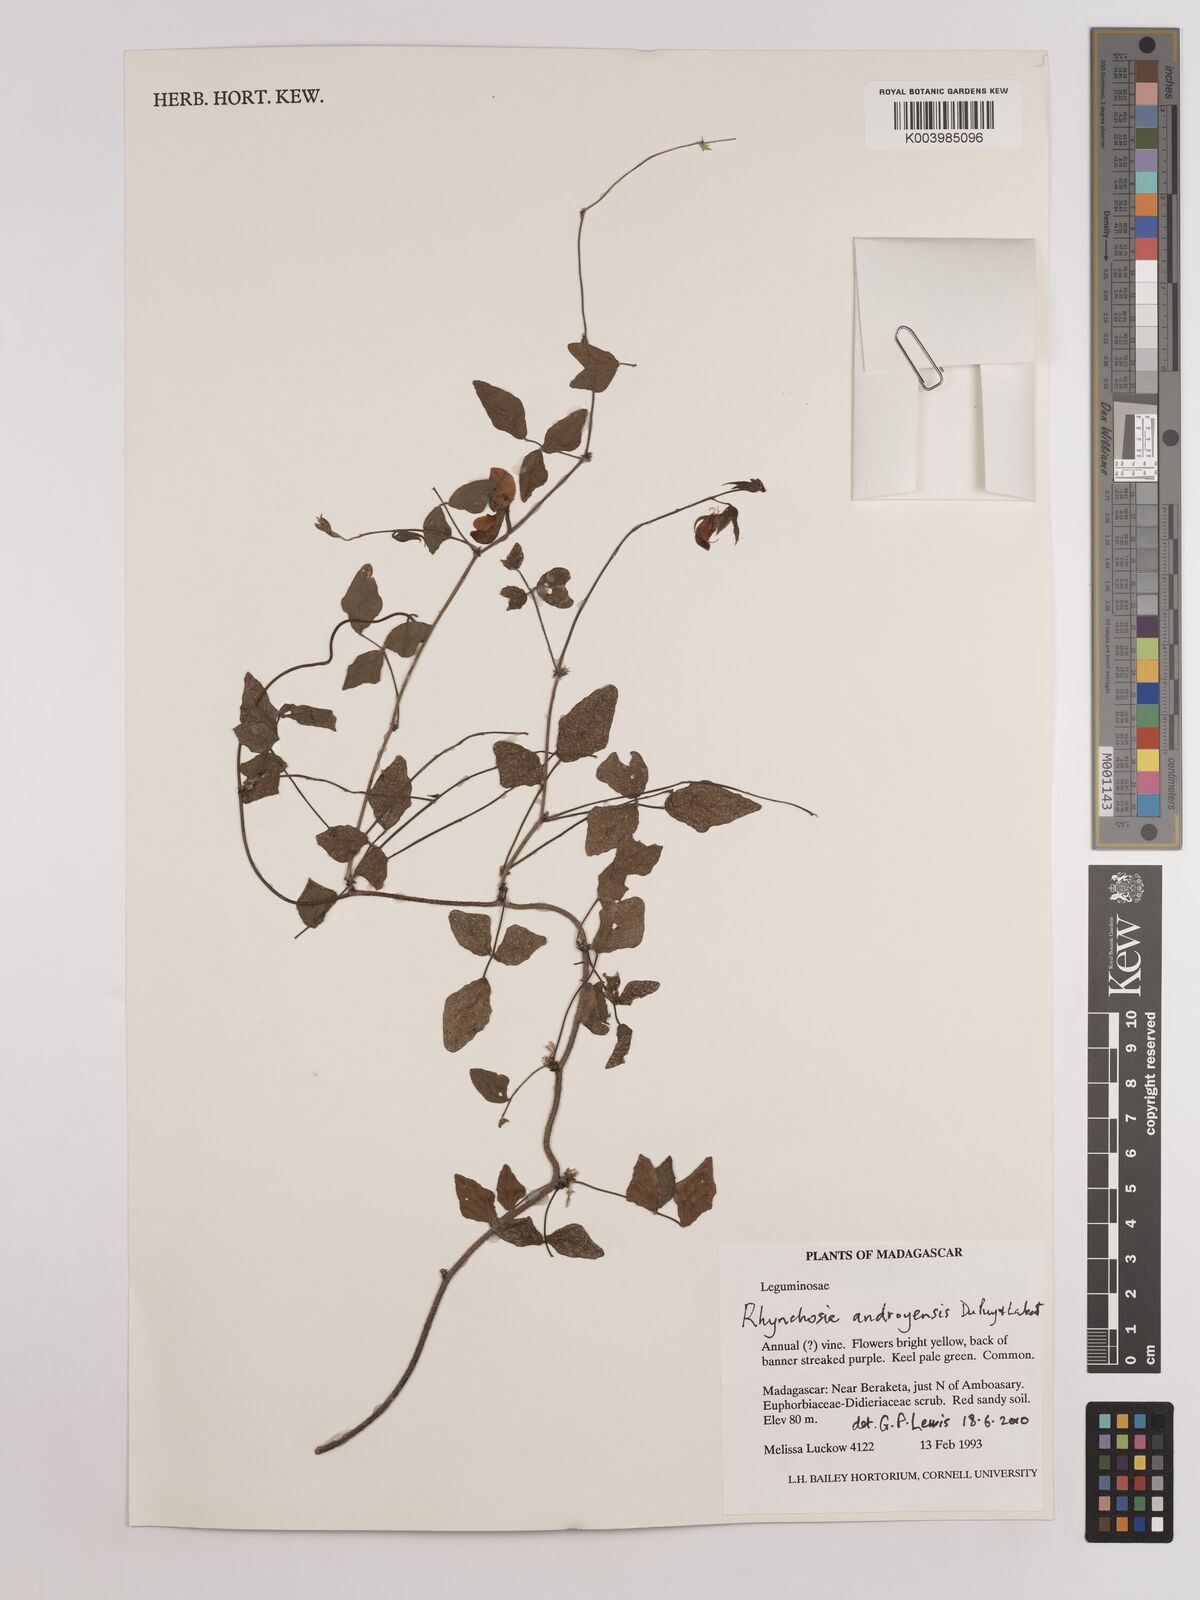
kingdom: Plantae
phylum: Tracheophyta
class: Magnoliopsida
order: Fabales
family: Fabaceae
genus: Rhynchosia
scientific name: Rhynchosia androyensis
